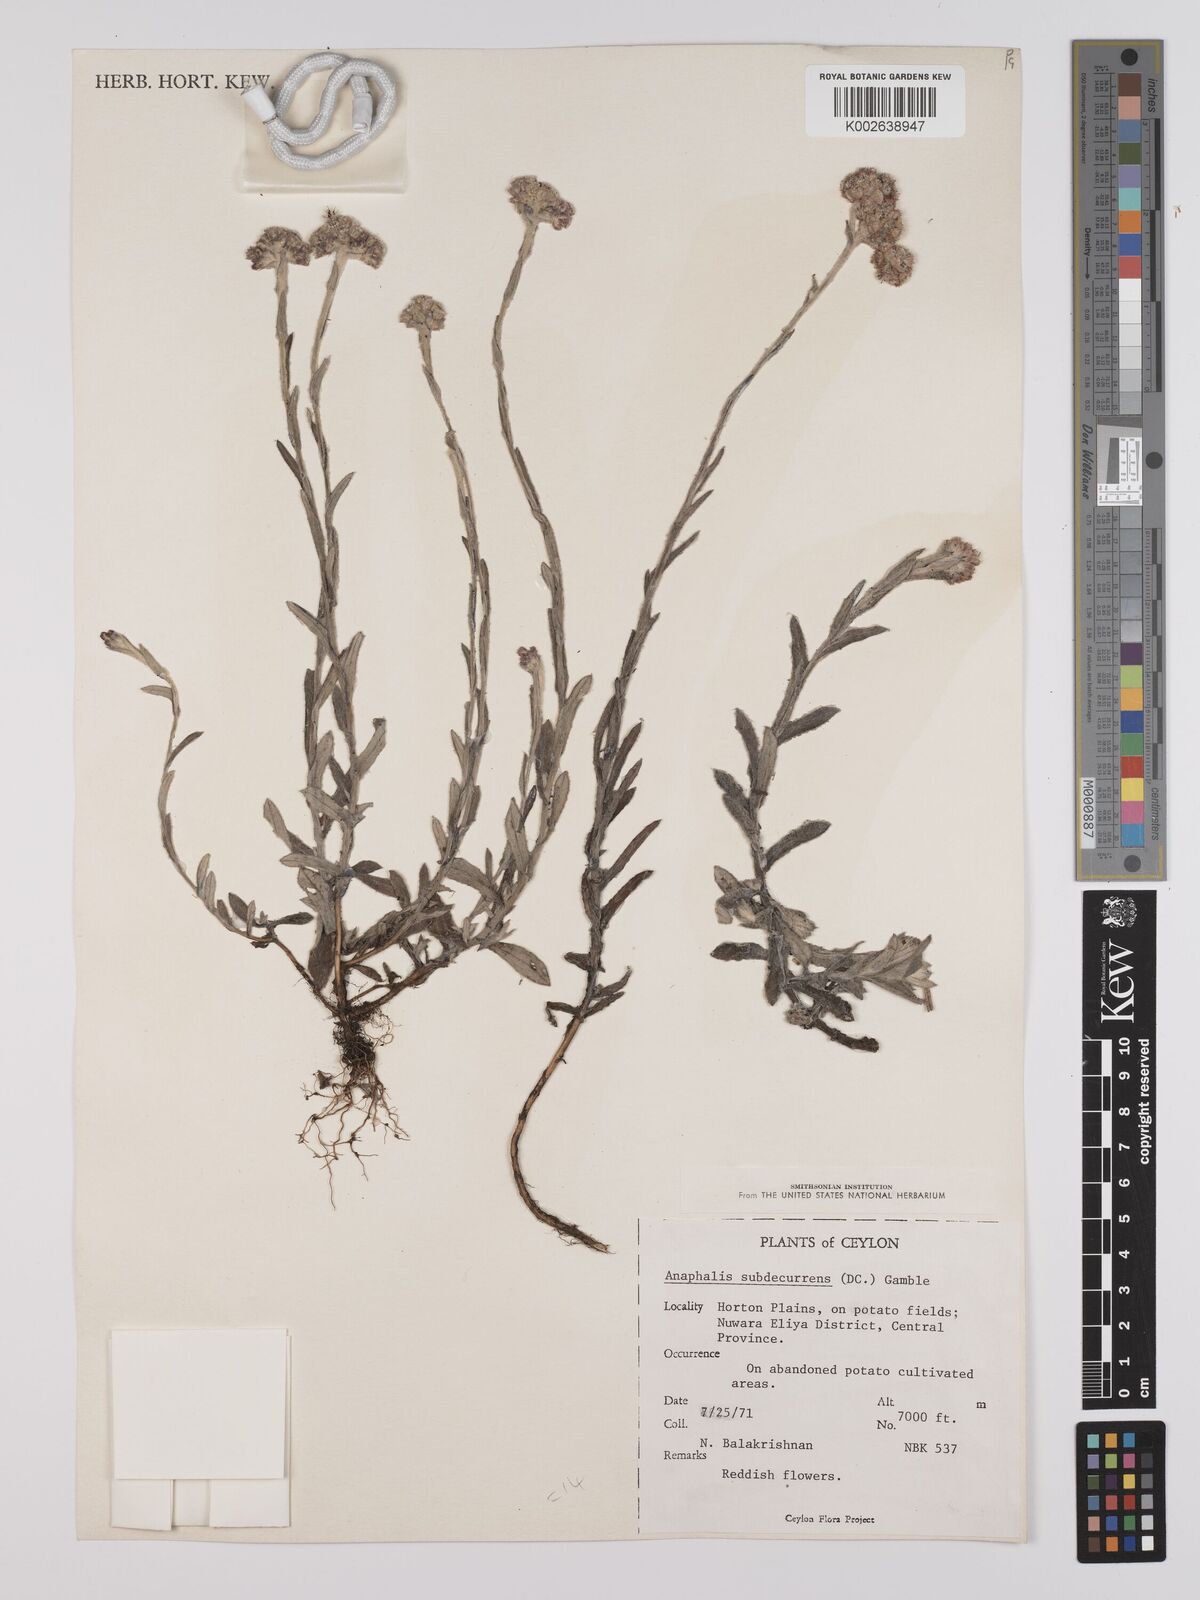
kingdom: Plantae
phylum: Tracheophyta
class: Magnoliopsida
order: Asterales
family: Asteraceae
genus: Anaphalis
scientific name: Anaphalis subdecurrens
